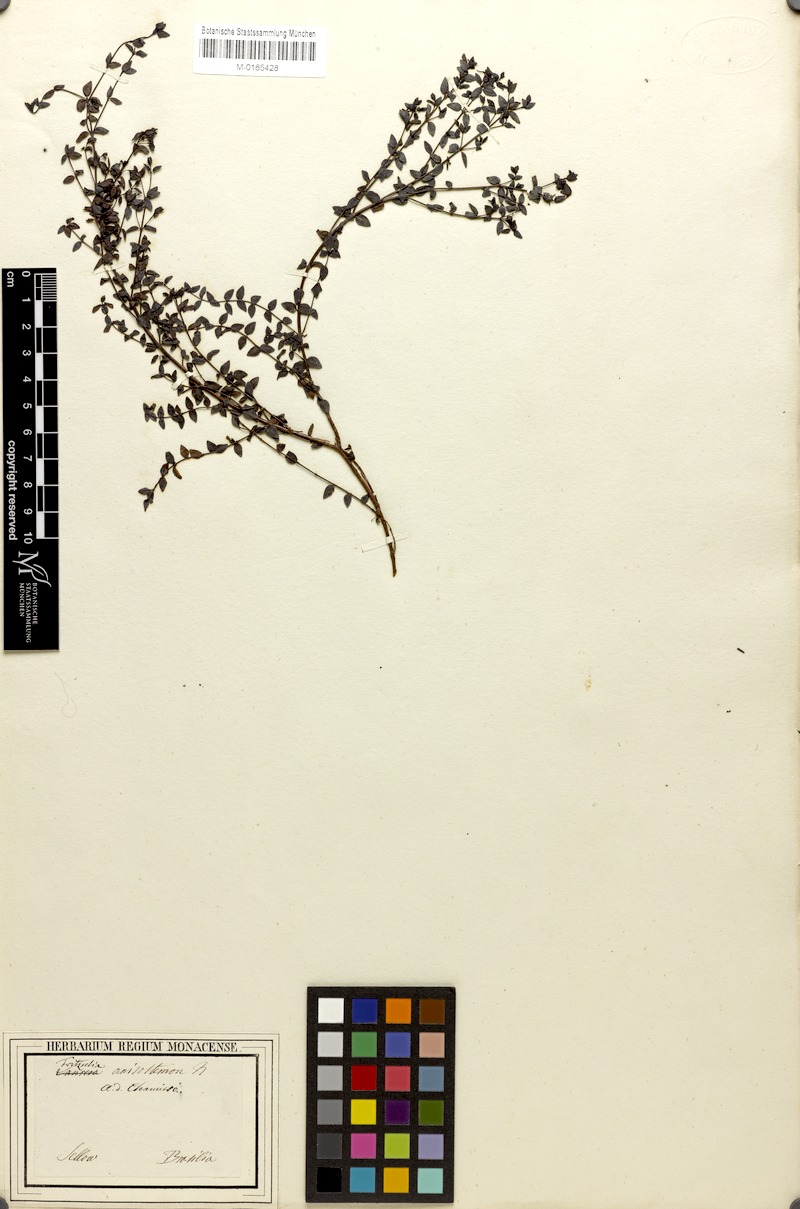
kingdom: Plantae
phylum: Tracheophyta
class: Magnoliopsida
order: Myrtales
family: Melastomataceae
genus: Fritzschia
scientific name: Fritzschia anisostemon
